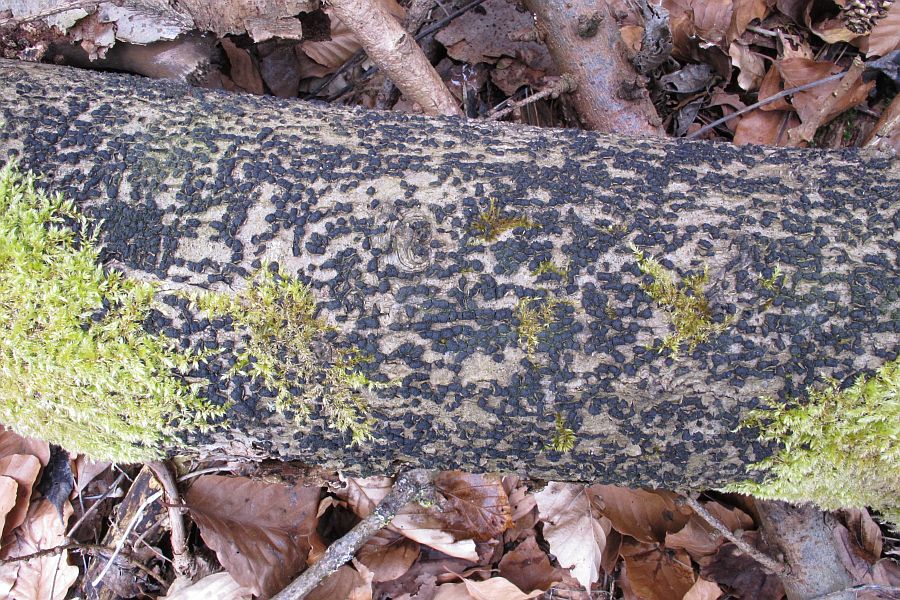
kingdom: Fungi
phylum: Ascomycota
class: Sordariomycetes
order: Xylariales
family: Melogrammataceae
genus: Melogramma
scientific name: Melogramma spiniferum
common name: bøgefod-kulhals
